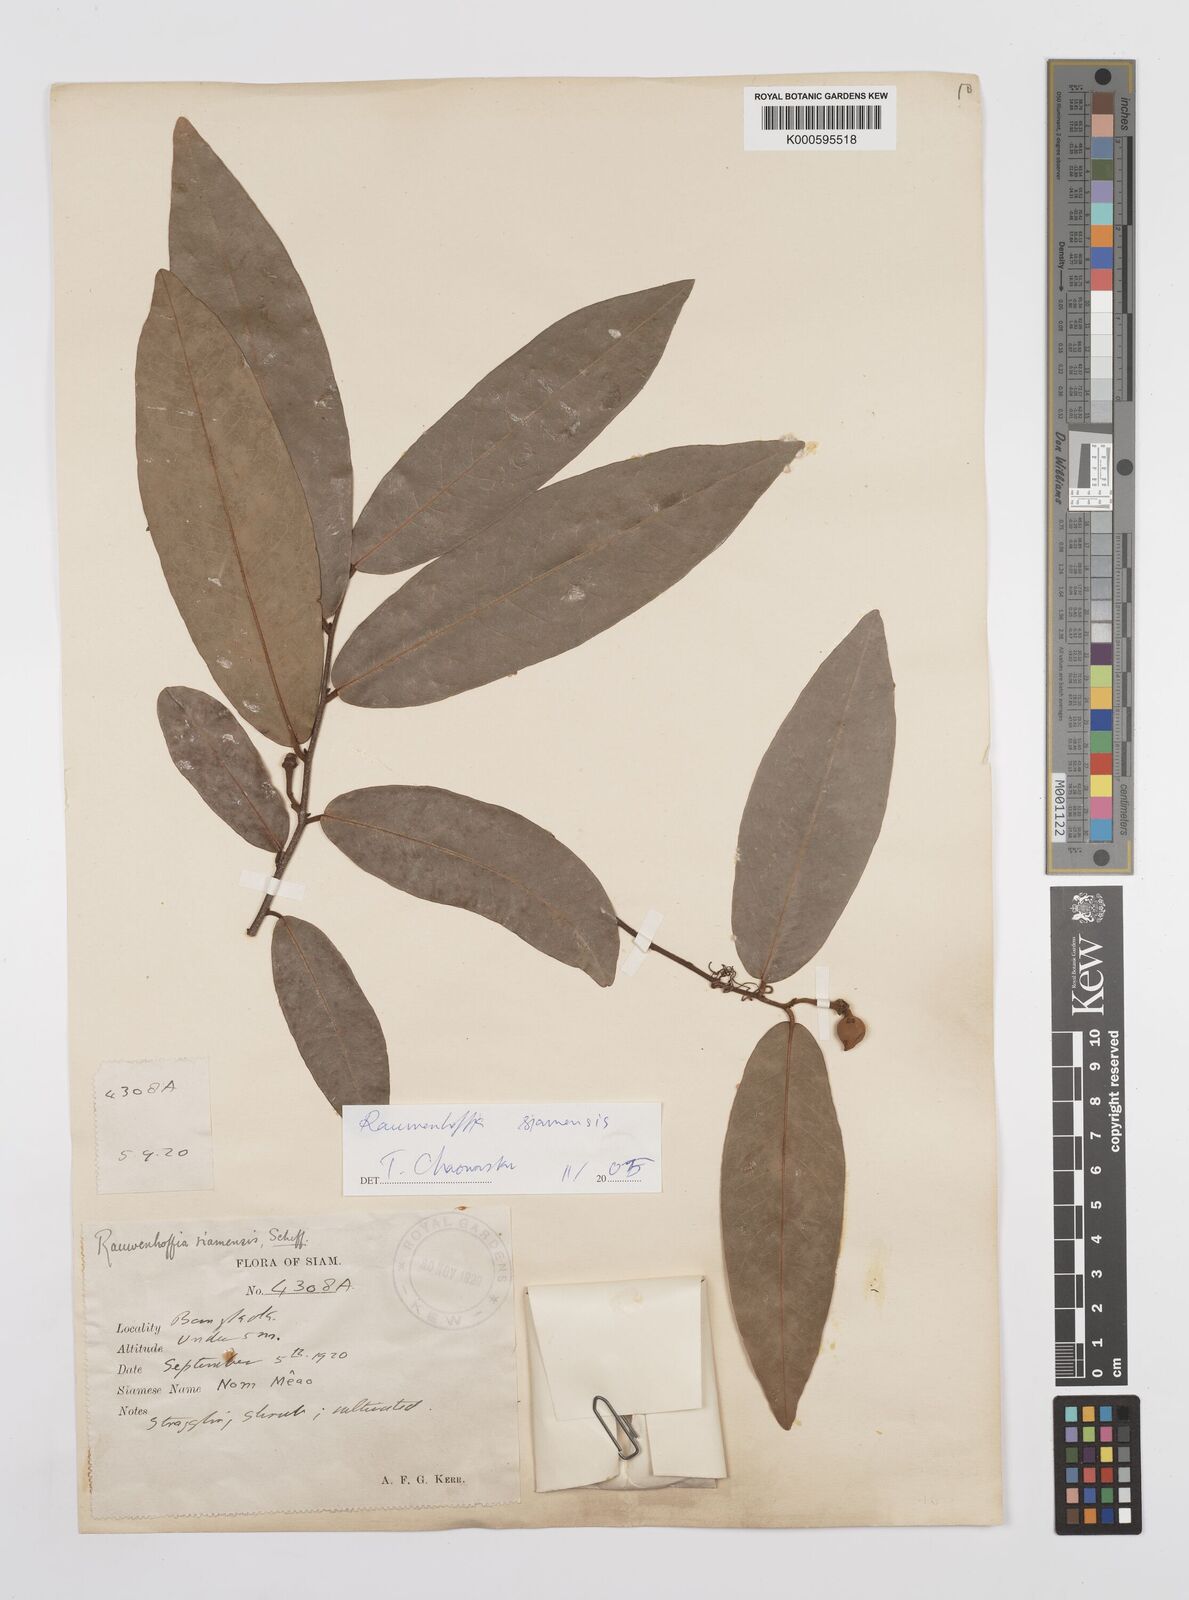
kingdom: Plantae
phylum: Tracheophyta
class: Magnoliopsida
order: Magnoliales
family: Annonaceae
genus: Melodorum
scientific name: Melodorum fruticosum
